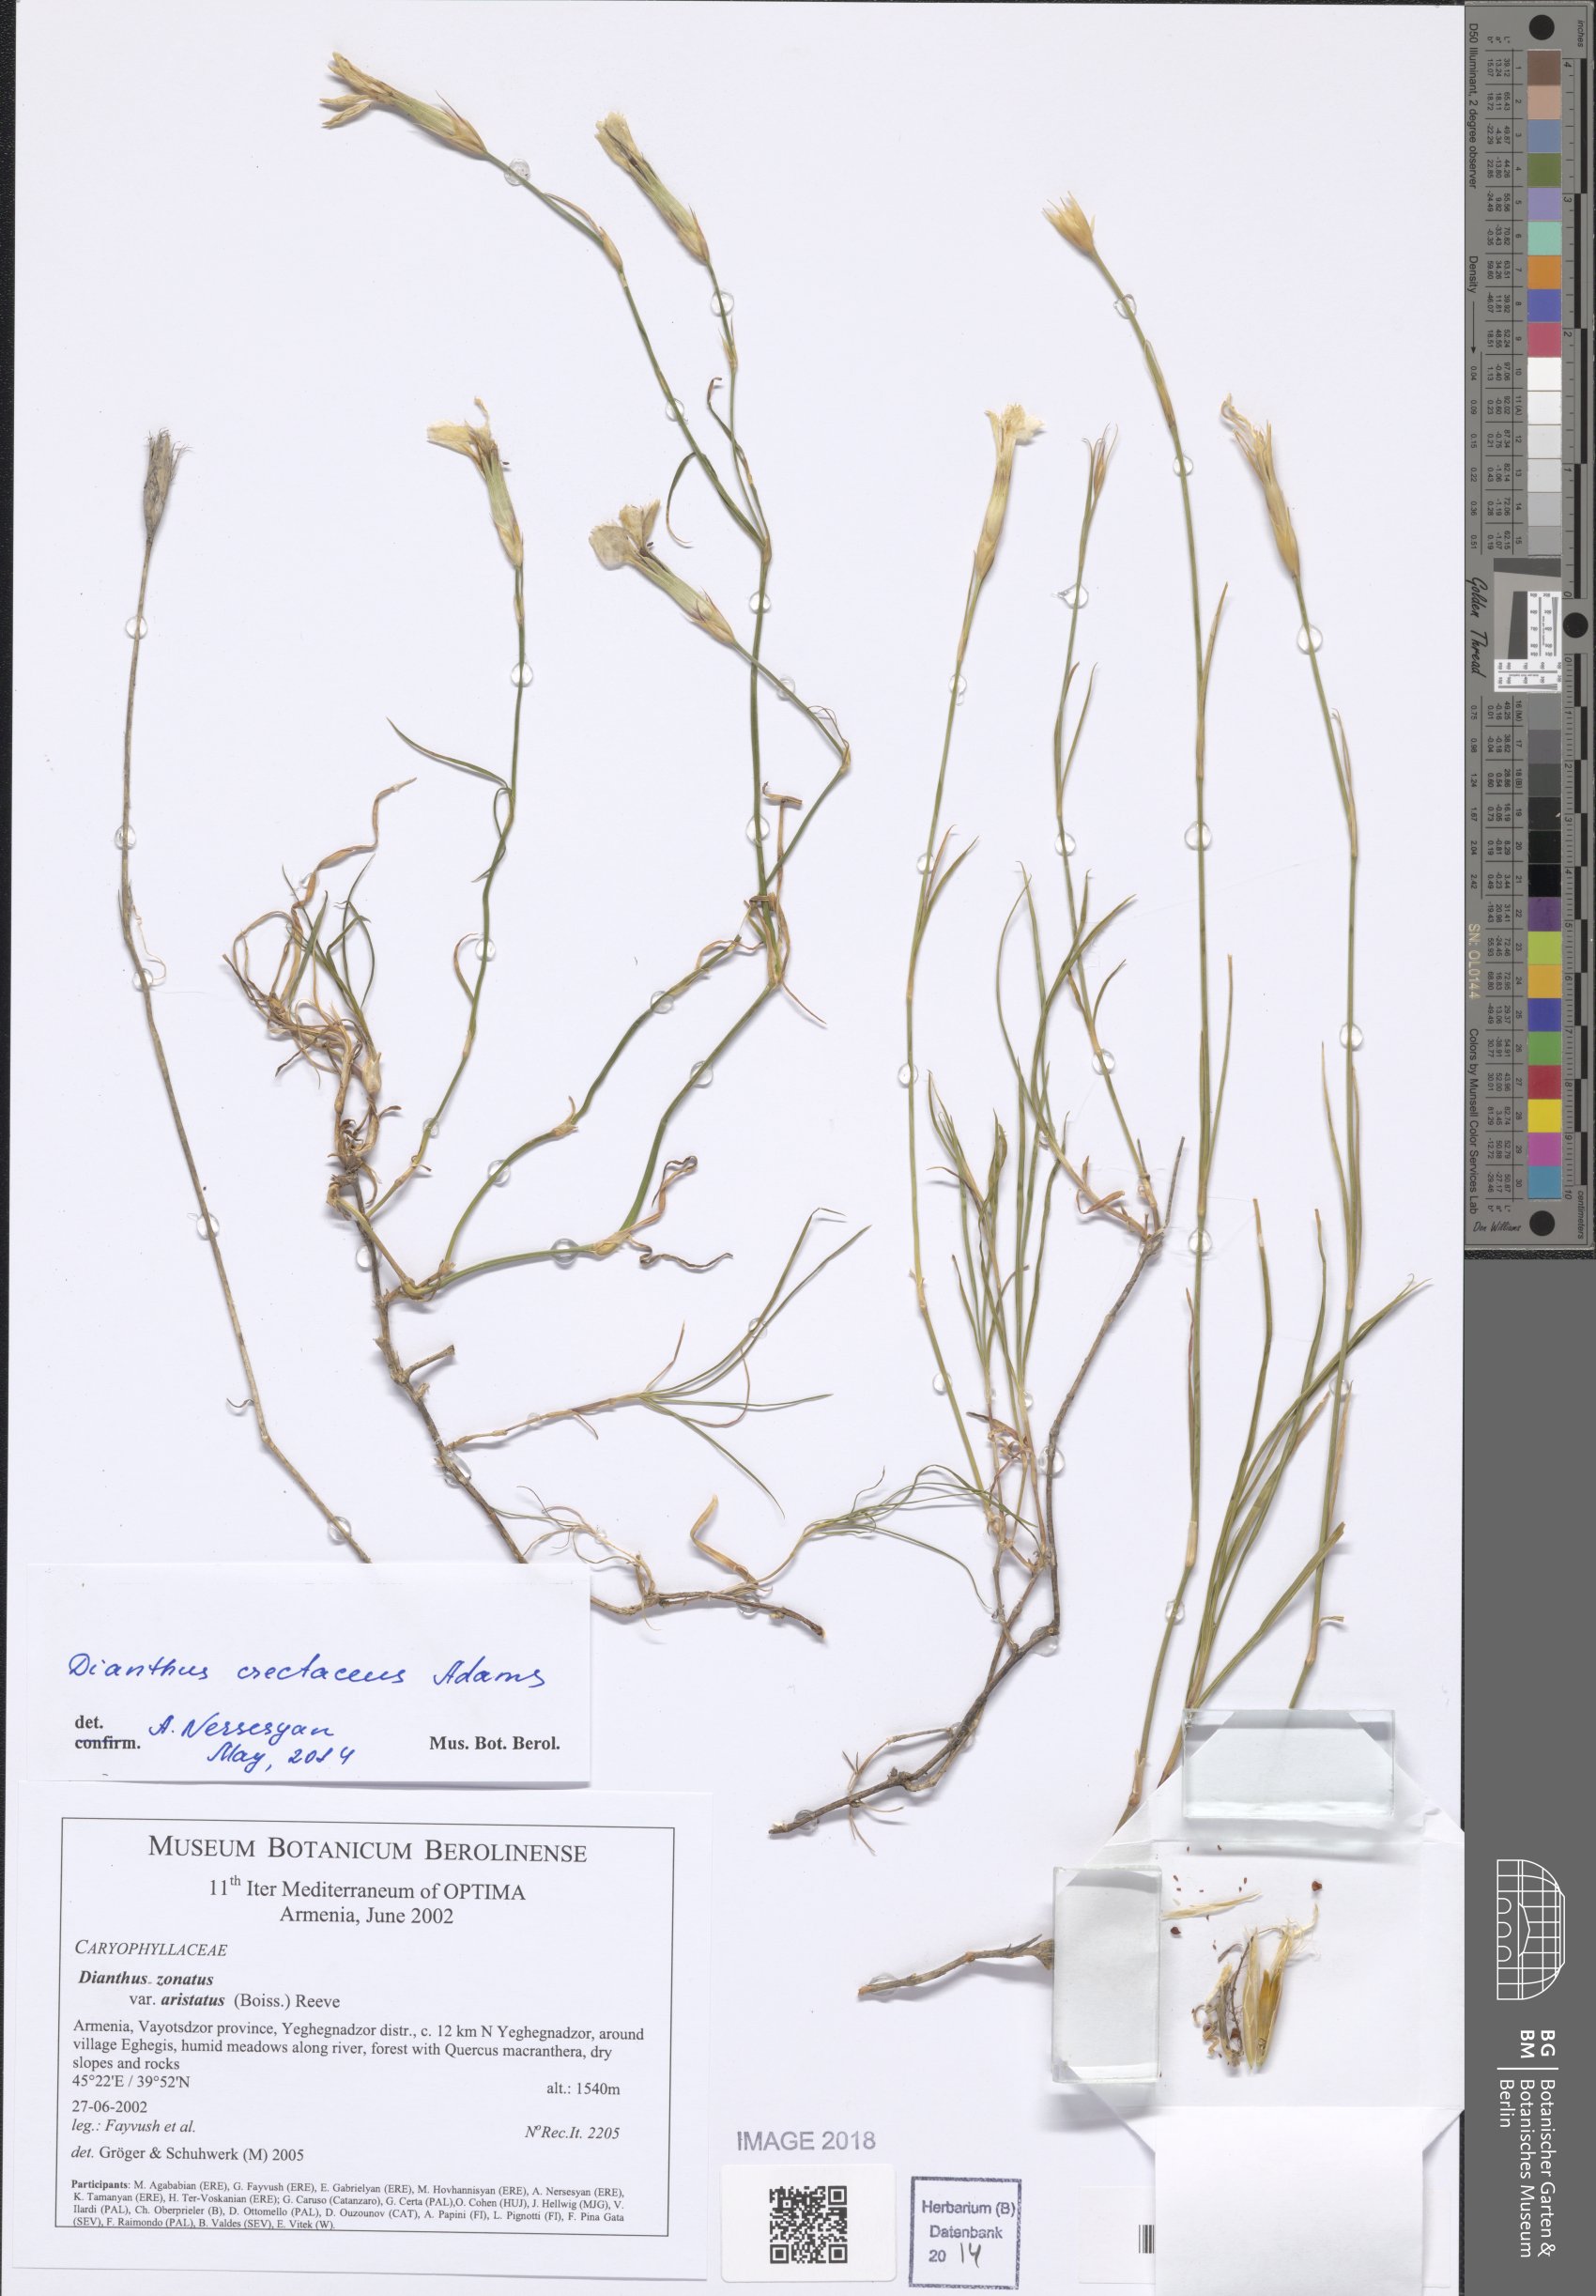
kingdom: Plantae
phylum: Tracheophyta
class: Magnoliopsida
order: Caryophyllales
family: Caryophyllaceae
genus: Dianthus
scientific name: Dianthus aristatus
